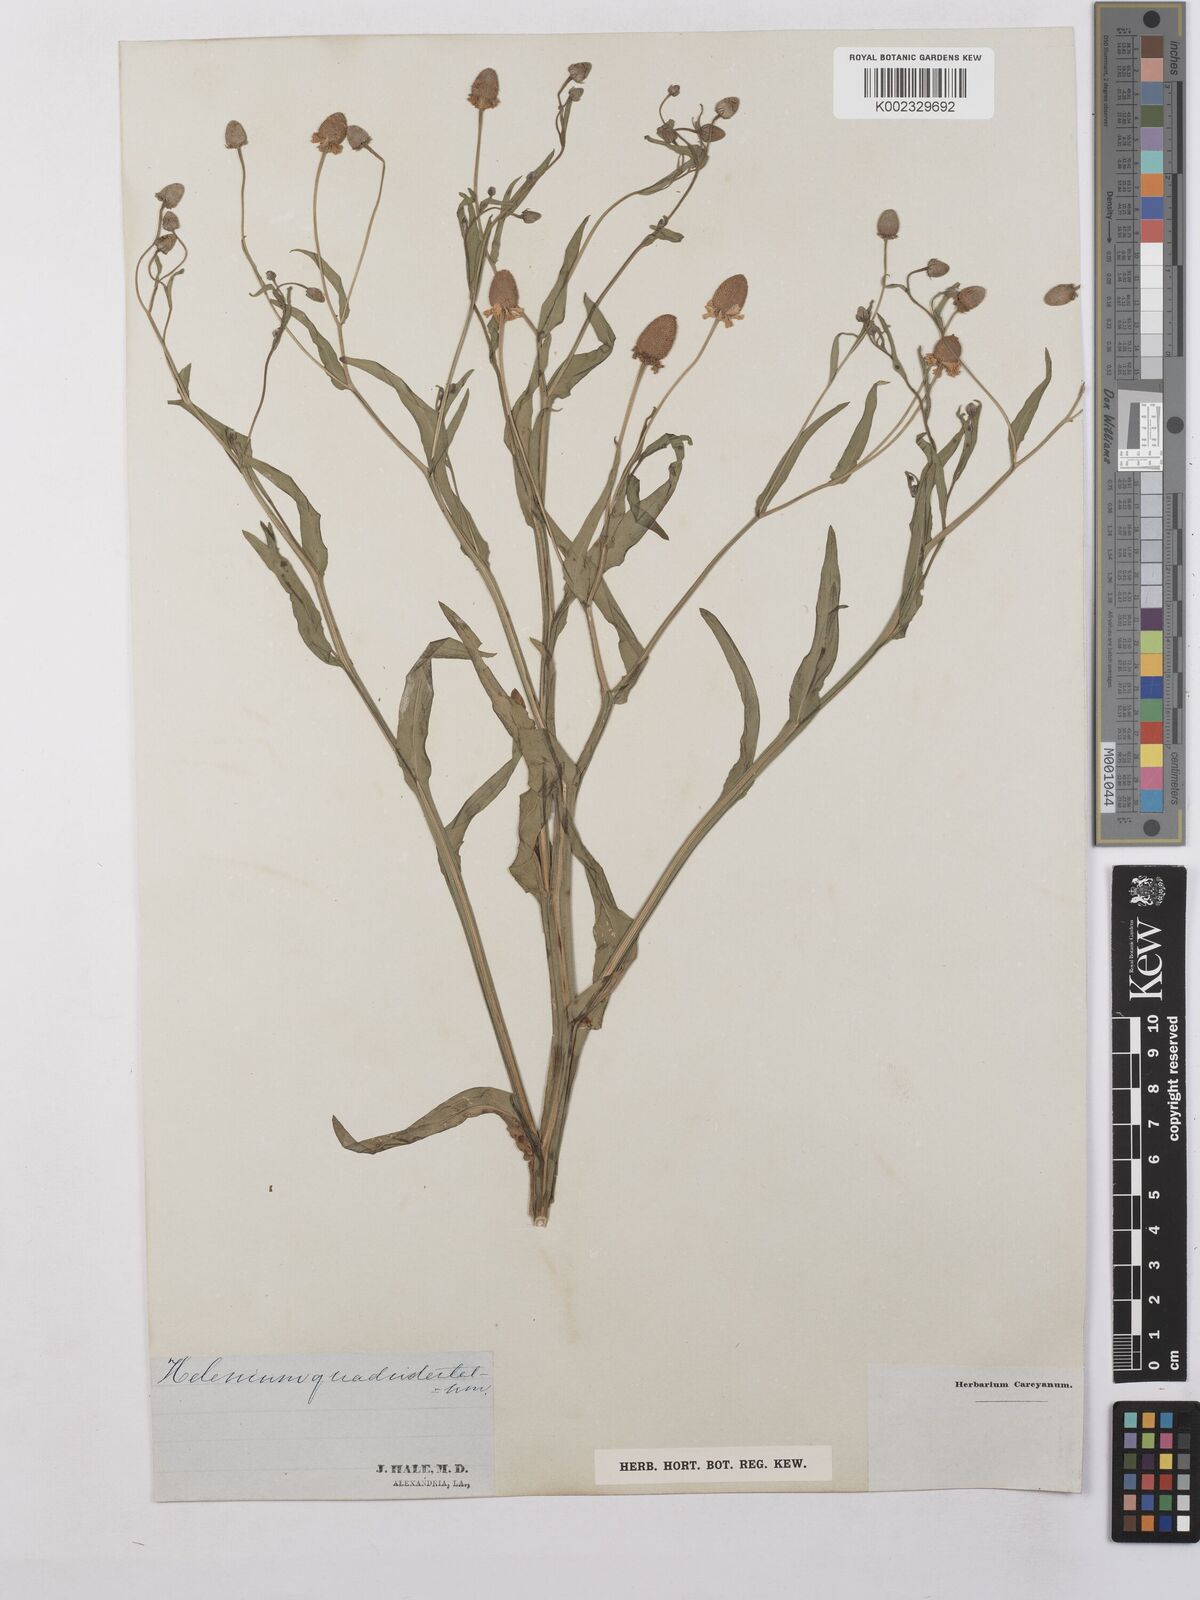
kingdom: Plantae
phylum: Tracheophyta
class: Magnoliopsida
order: Asterales
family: Asteraceae
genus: Helenium
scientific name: Helenium quadridentatum
